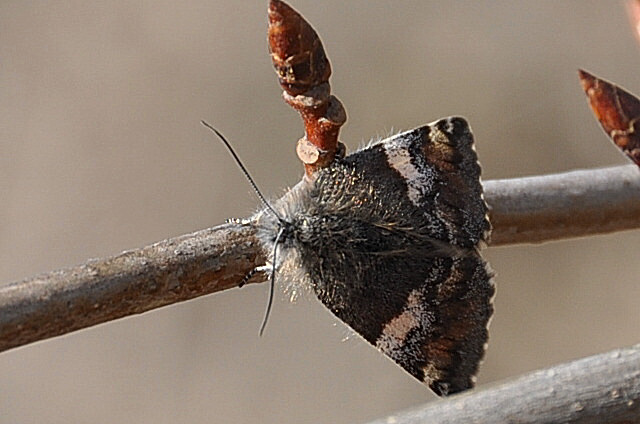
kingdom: Animalia
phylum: Arthropoda
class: Insecta
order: Lepidoptera
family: Geometridae
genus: Archiearis
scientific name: Archiearis parthenias
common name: Orange underwing
